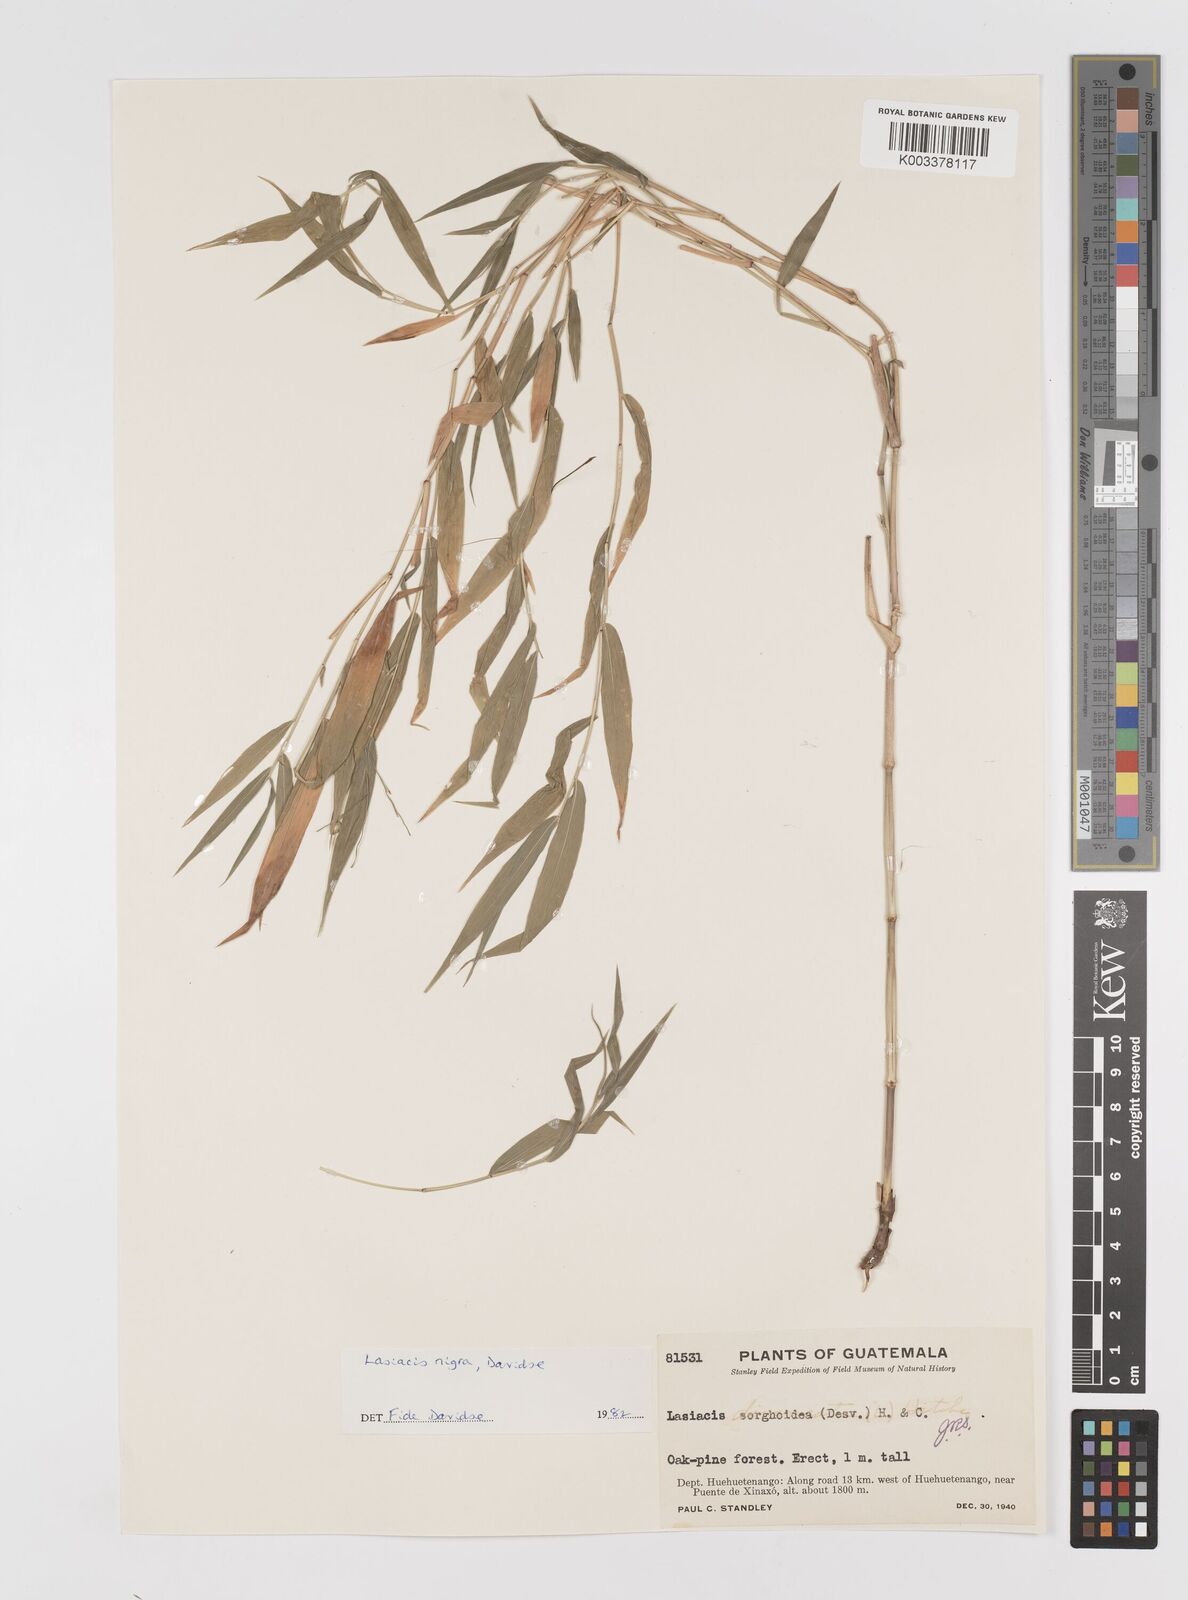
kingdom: Plantae
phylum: Tracheophyta
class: Liliopsida
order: Poales
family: Poaceae
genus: Lasiacis
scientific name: Lasiacis nigra
